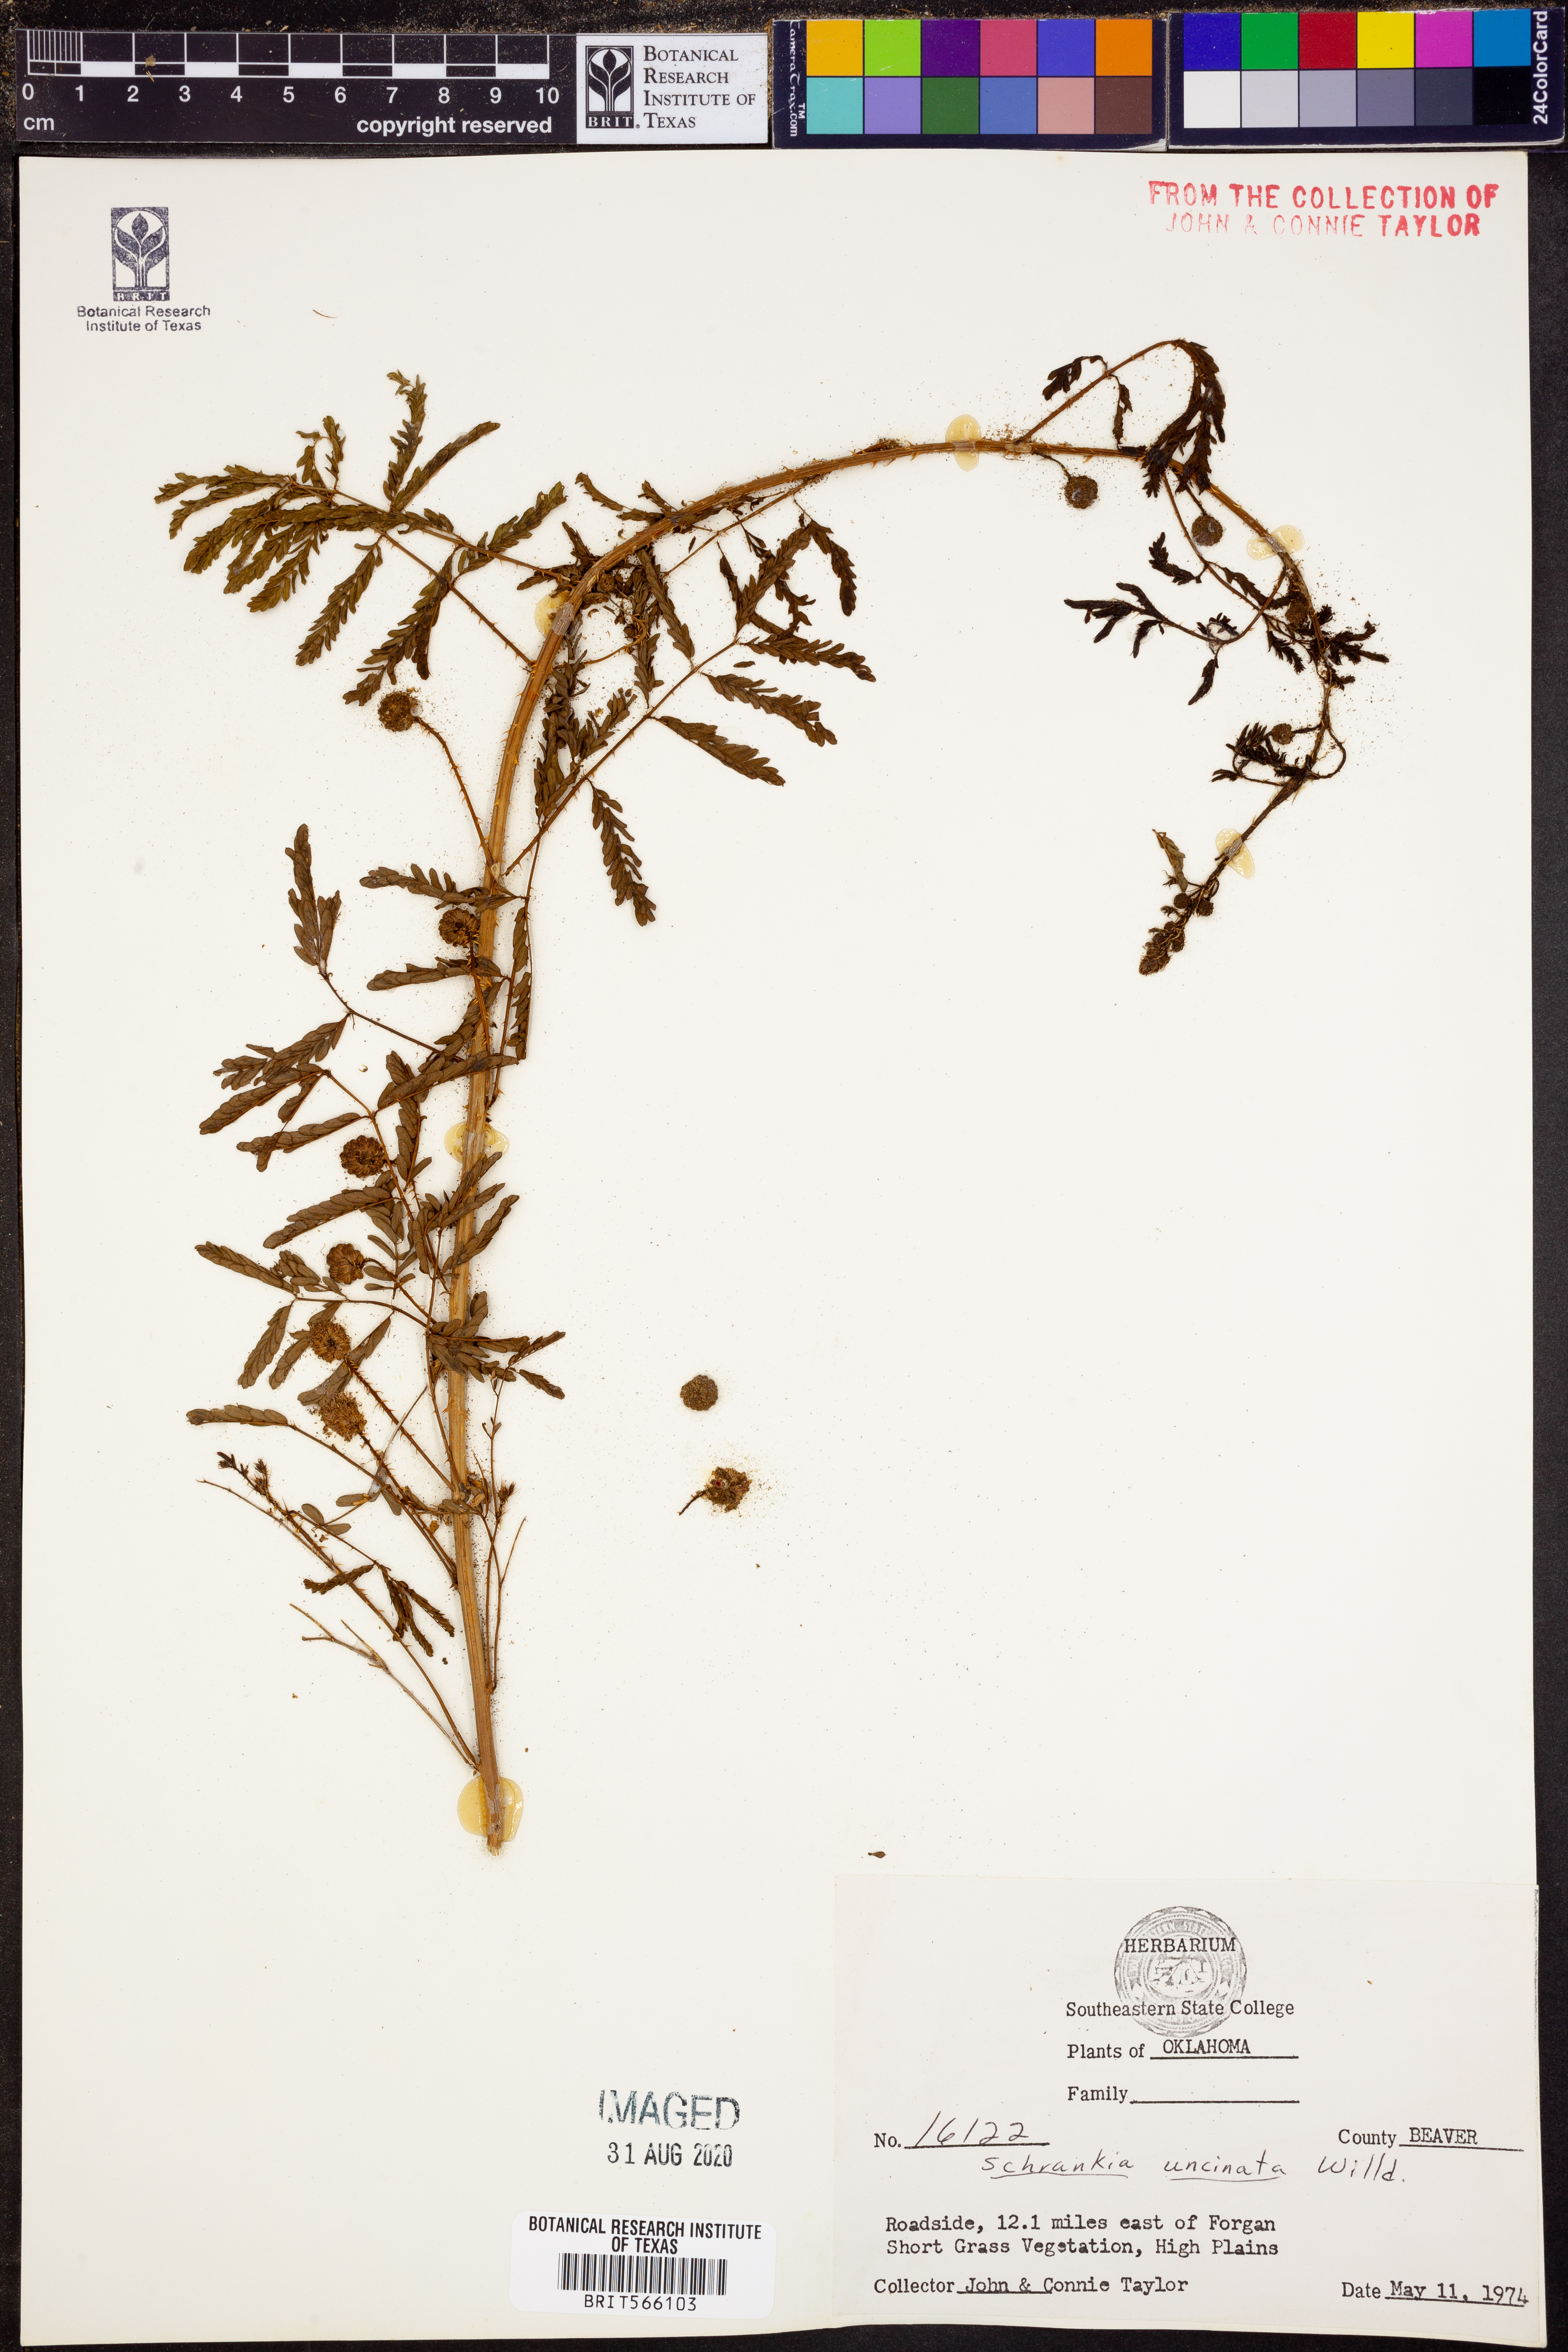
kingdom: Plantae
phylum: Tracheophyta
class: Magnoliopsida
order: Fabales
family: Fabaceae
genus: Mimosa
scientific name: Mimosa quadrivalvis
